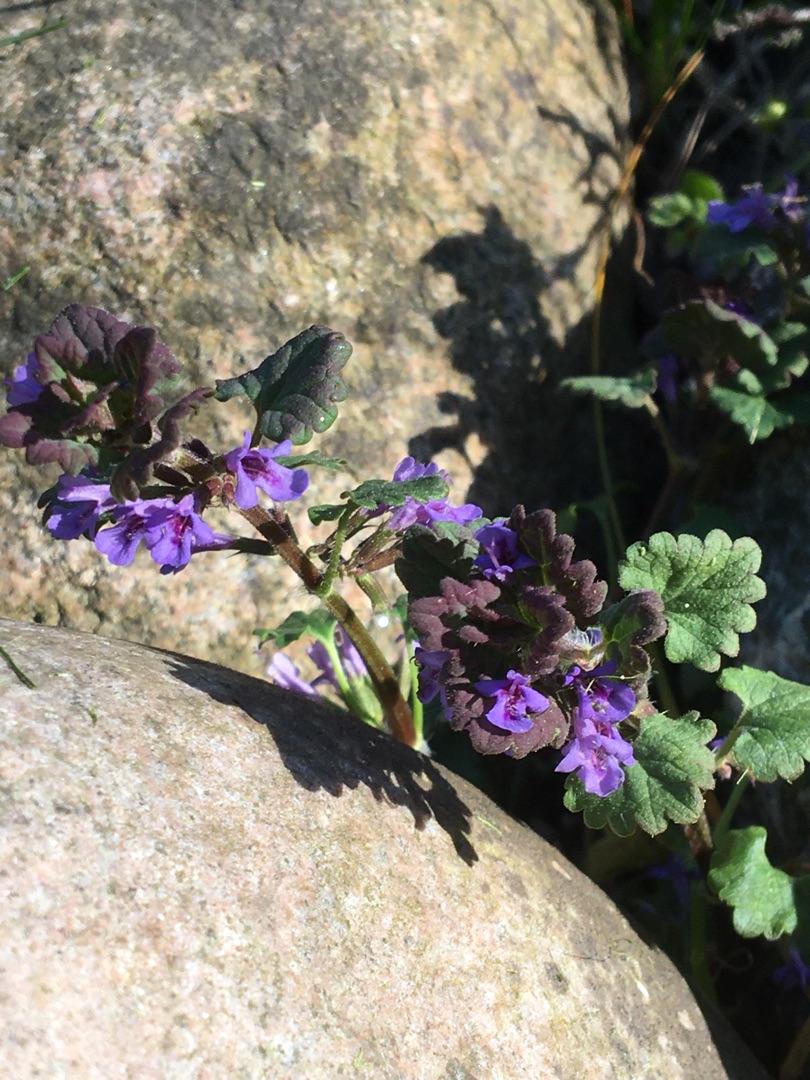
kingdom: Plantae
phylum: Tracheophyta
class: Magnoliopsida
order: Lamiales
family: Lamiaceae
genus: Glechoma
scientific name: Glechoma hederacea
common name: Korsknap
